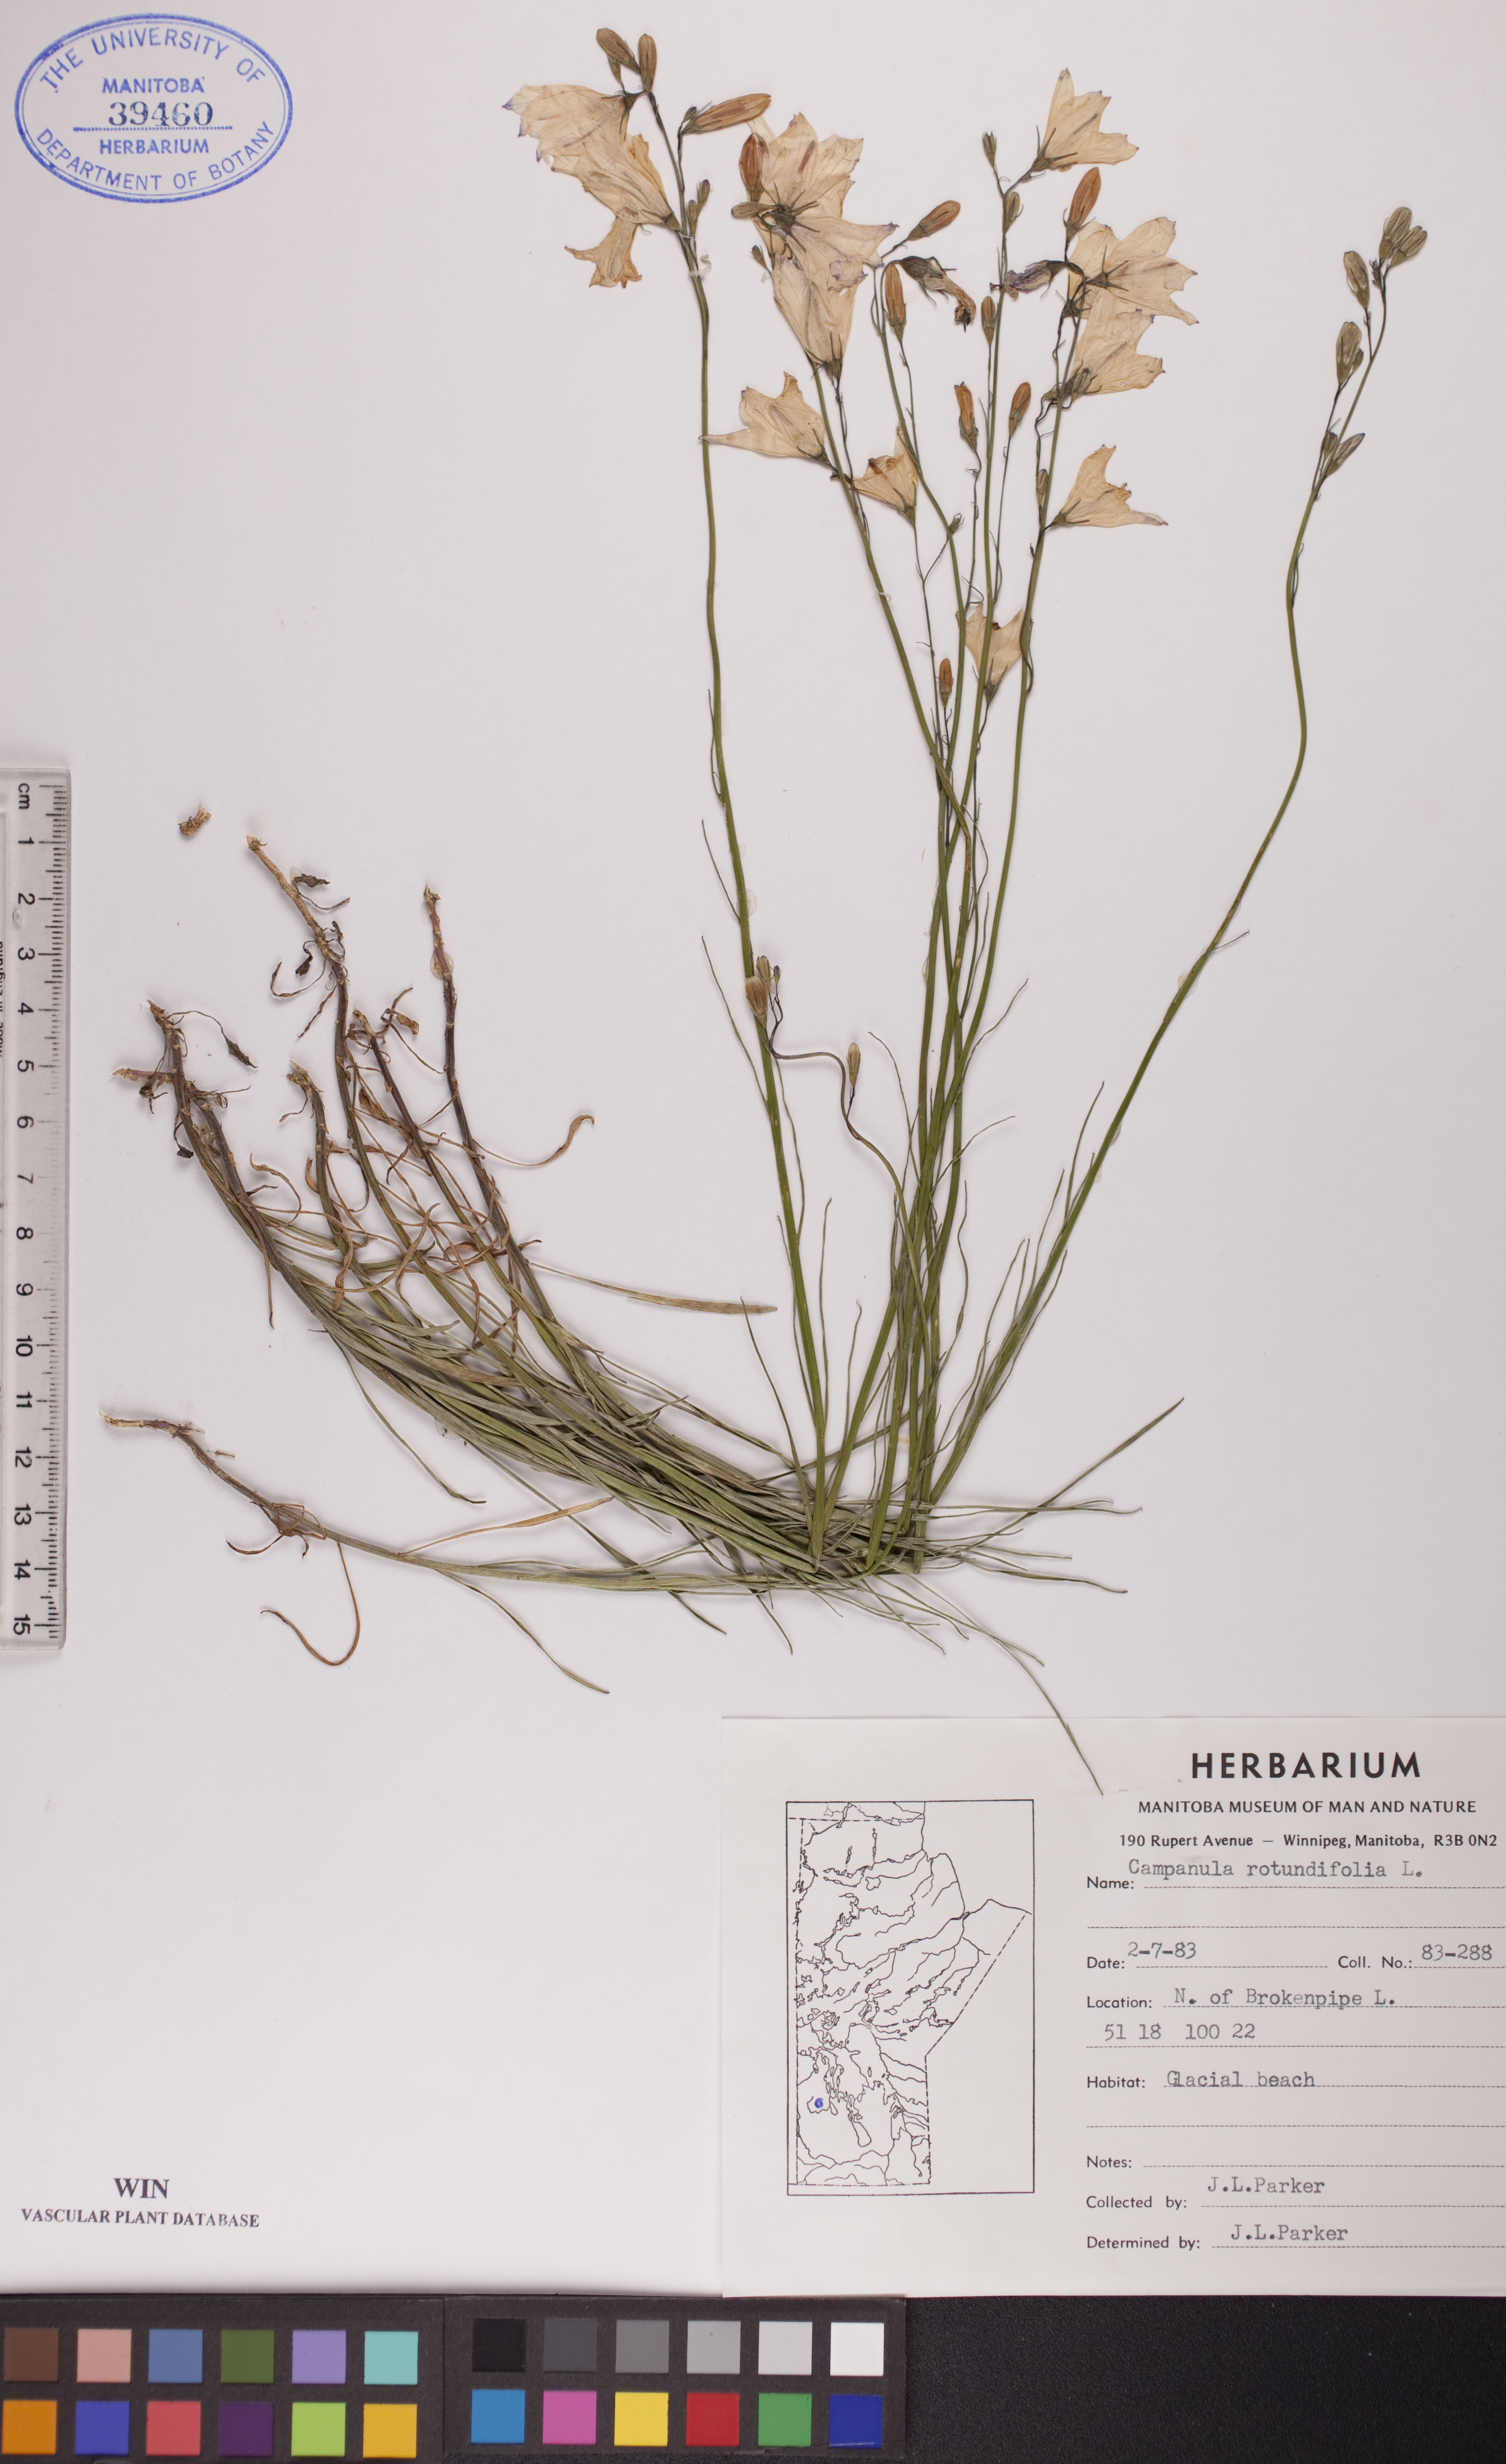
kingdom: Plantae
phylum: Tracheophyta
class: Magnoliopsida
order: Asterales
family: Campanulaceae
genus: Campanula
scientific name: Campanula rotundifolia
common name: Harebell
